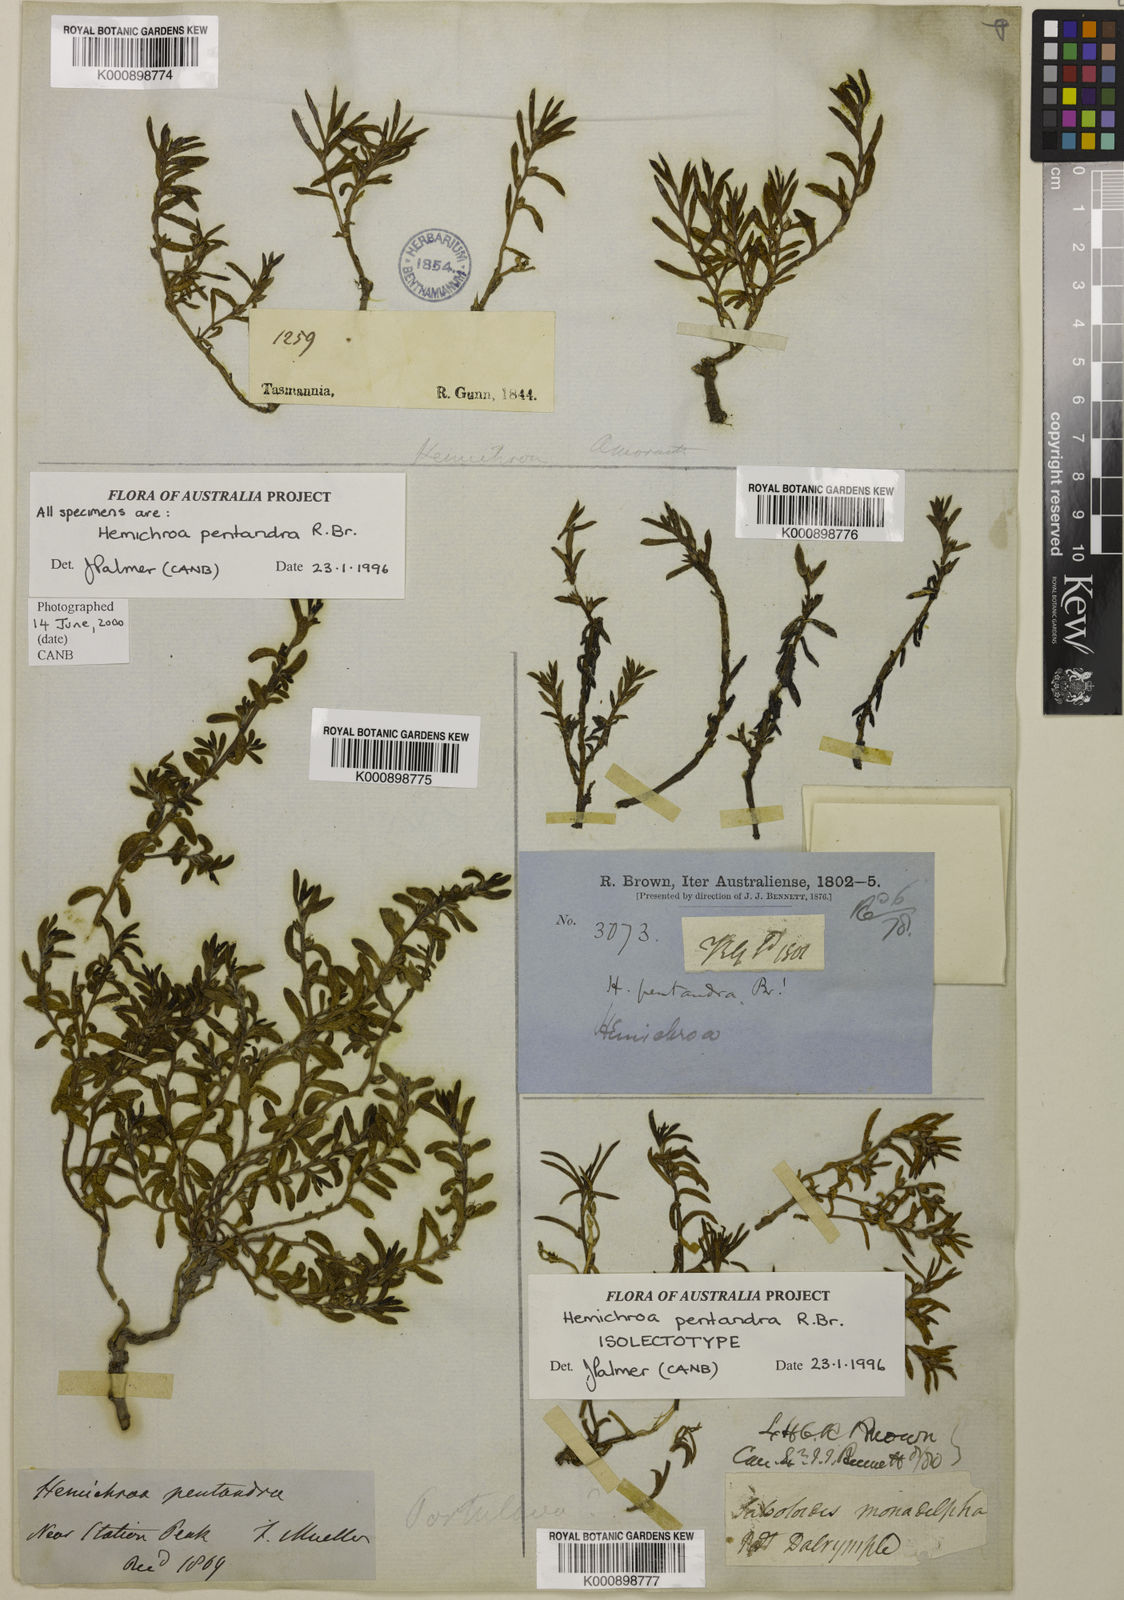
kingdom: Plantae
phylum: Tracheophyta
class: Magnoliopsida
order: Caryophyllales
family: Amaranthaceae
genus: Hemichroa
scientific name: Hemichroa pentandra
